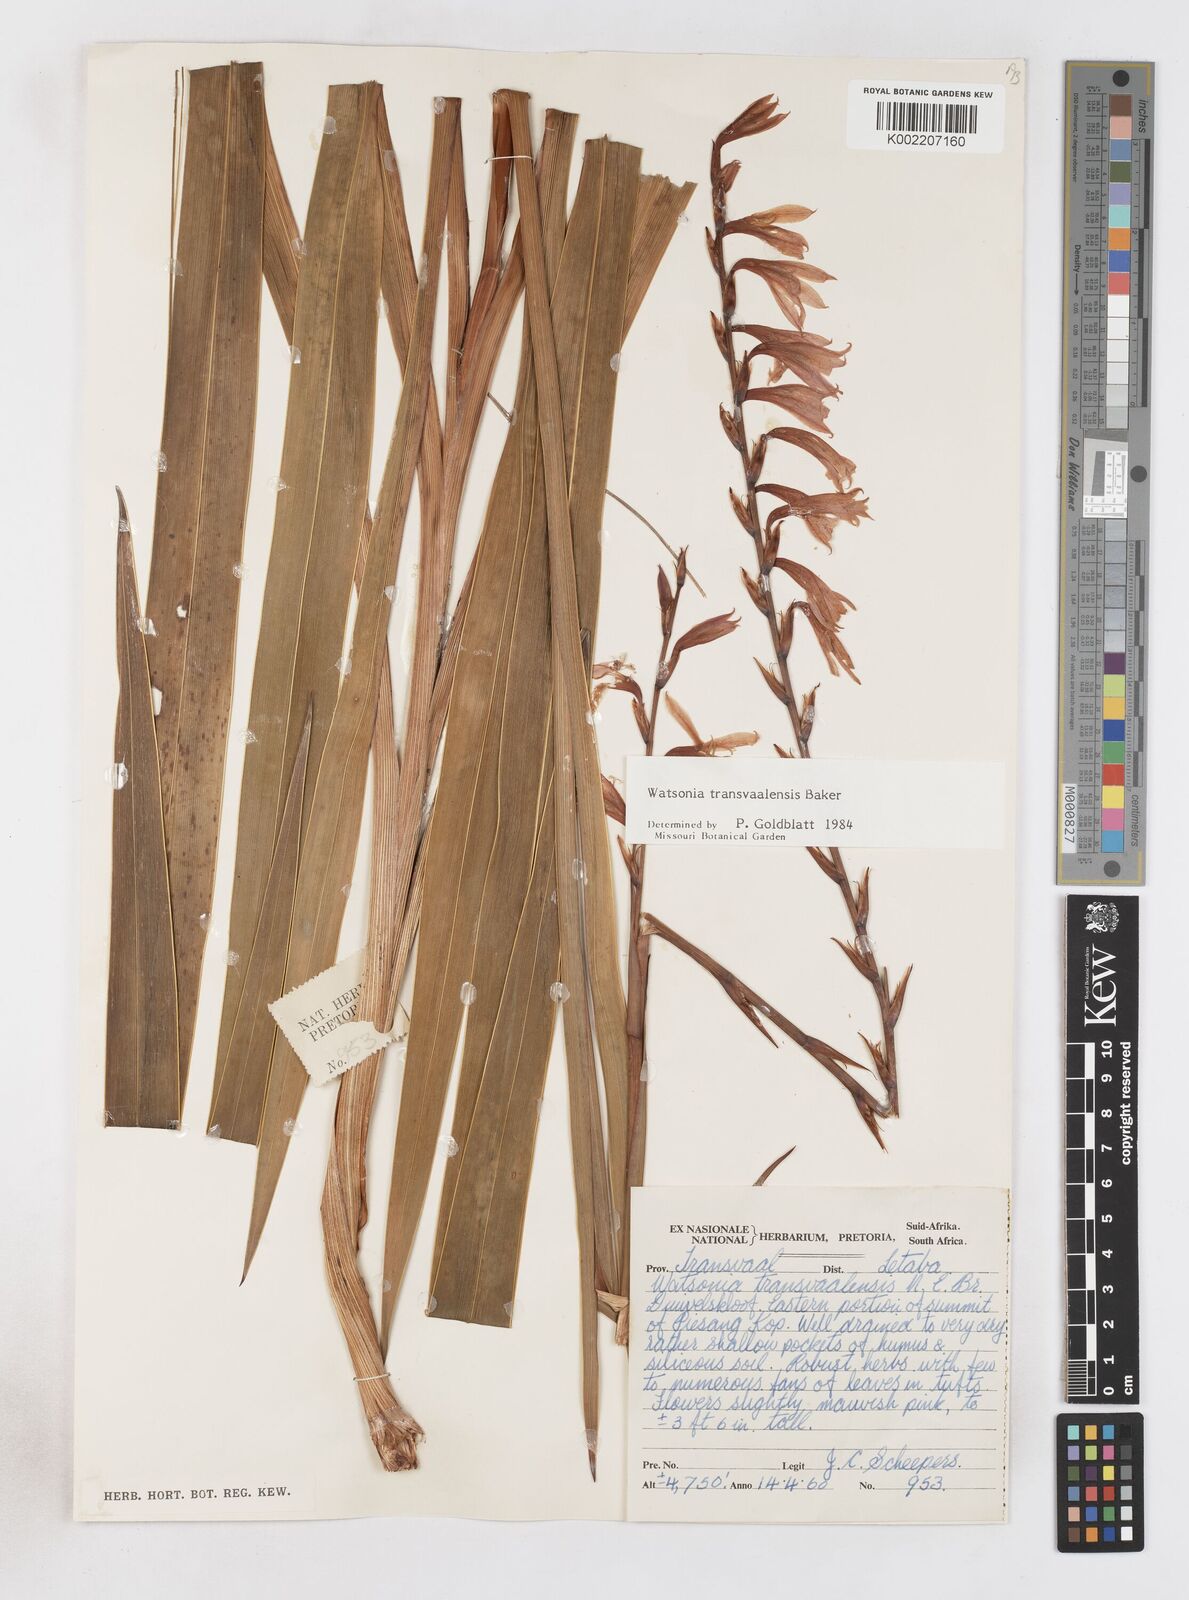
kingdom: Plantae
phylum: Tracheophyta
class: Liliopsida
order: Asparagales
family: Iridaceae
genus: Watsonia
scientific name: Watsonia transvaalensis
